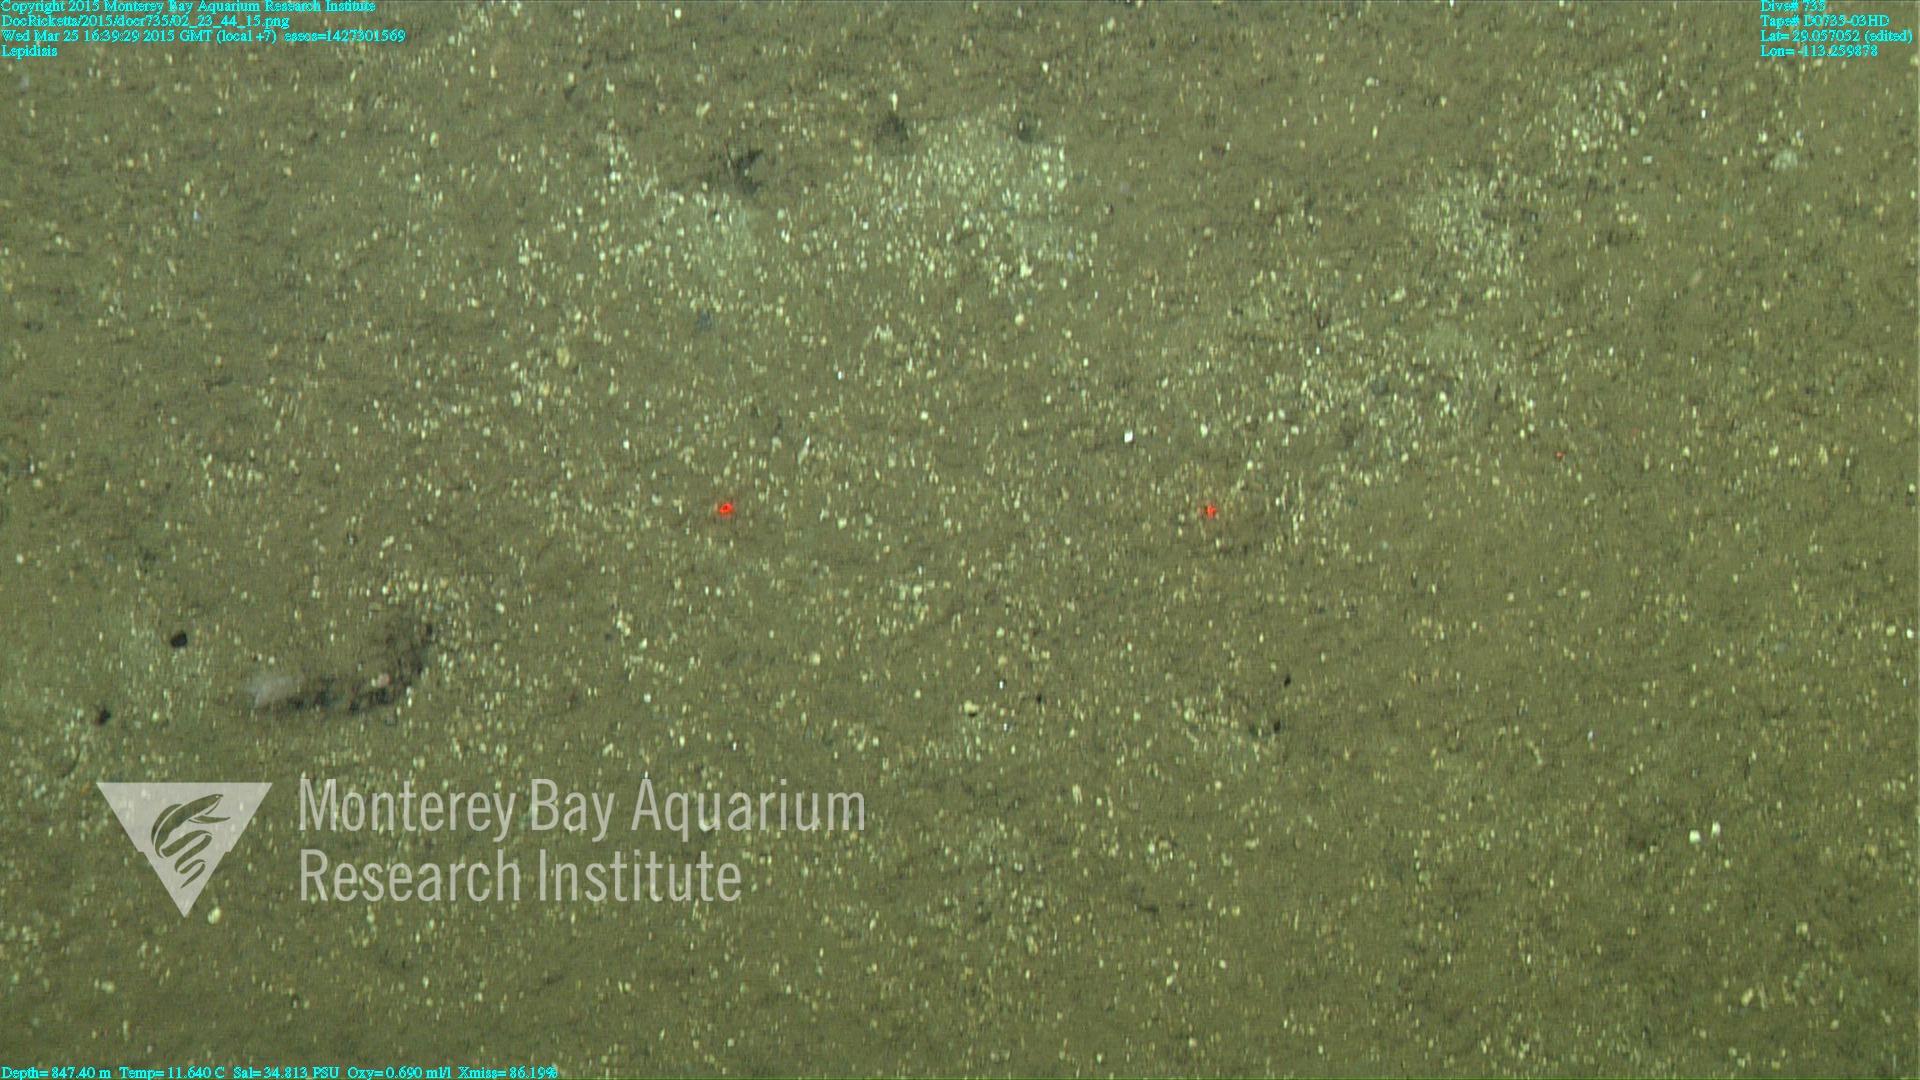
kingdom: Animalia
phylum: Cnidaria
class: Anthozoa
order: Scleralcyonacea
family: Keratoisididae
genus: Lepidisis
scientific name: Lepidisis
